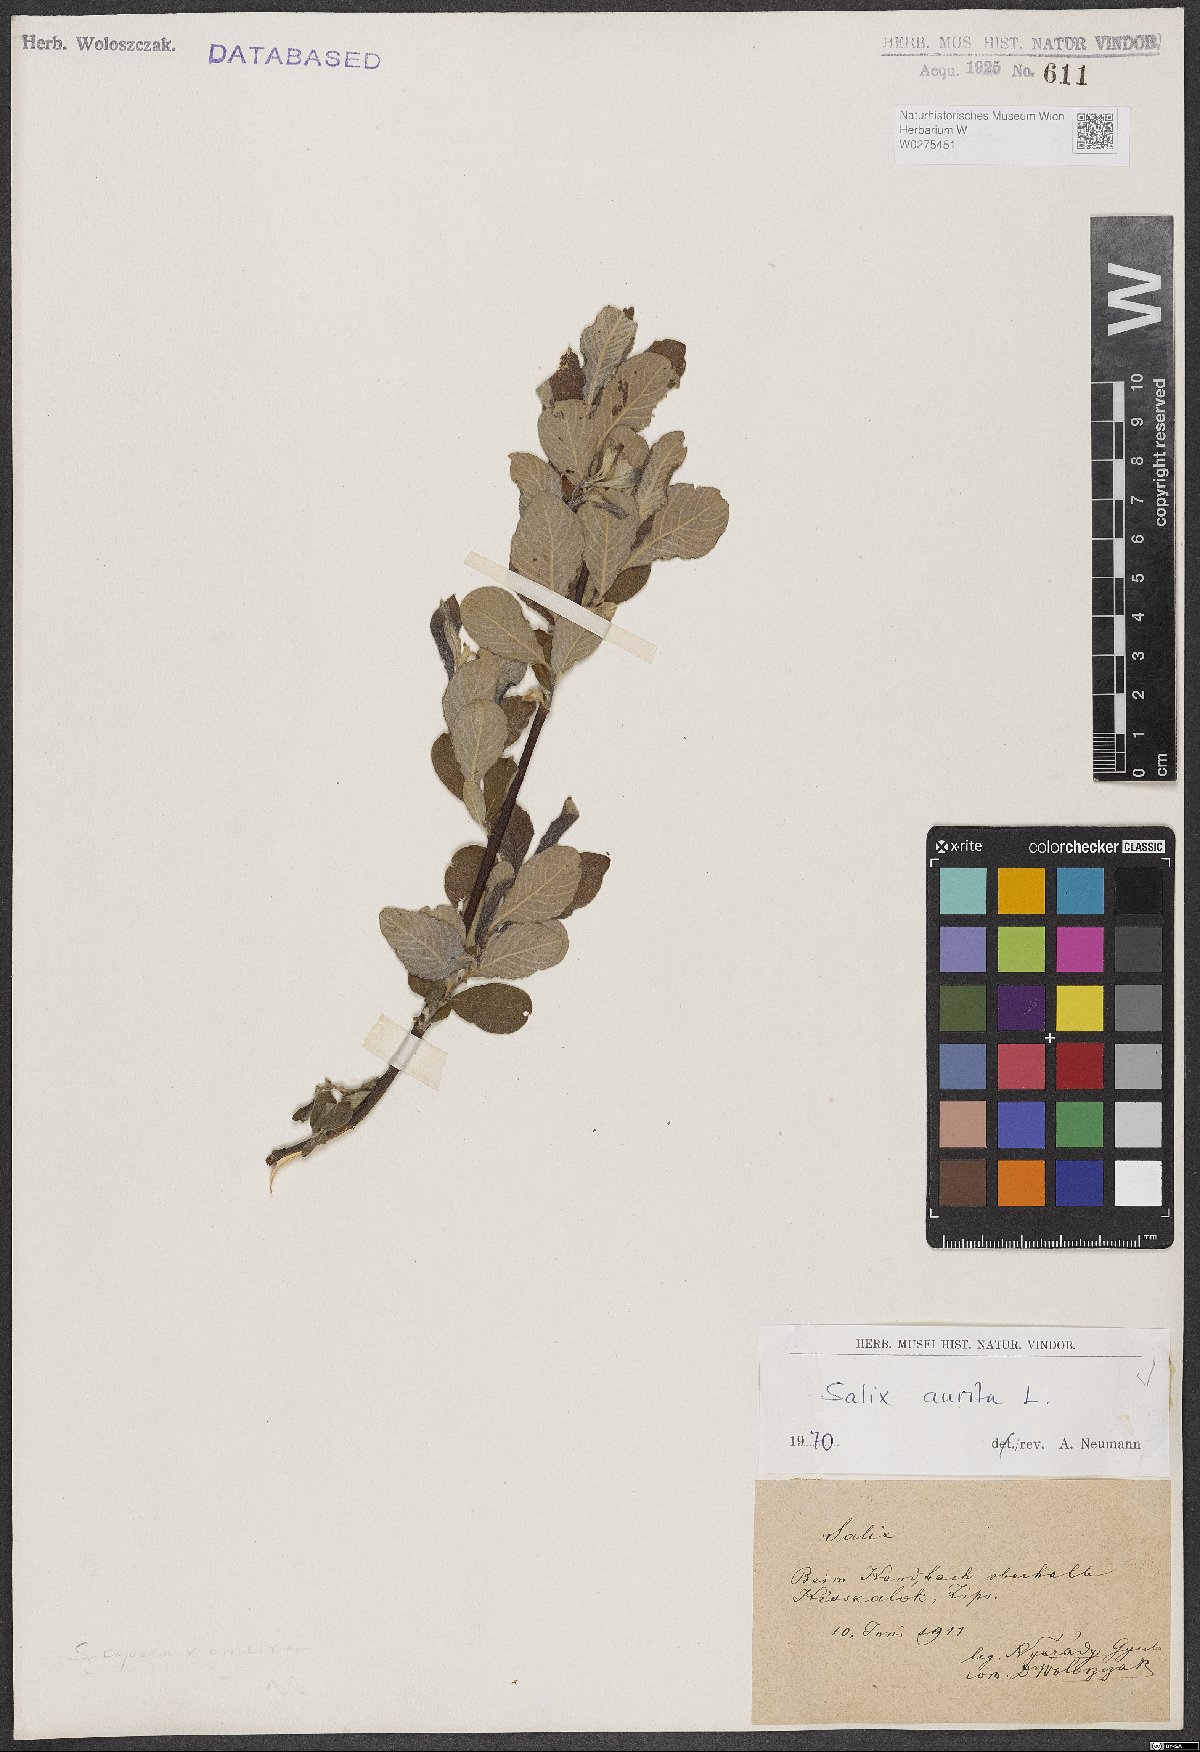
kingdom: Plantae
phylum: Tracheophyta
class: Magnoliopsida
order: Malpighiales
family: Salicaceae
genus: Salix
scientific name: Salix aurita
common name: Eared willow
